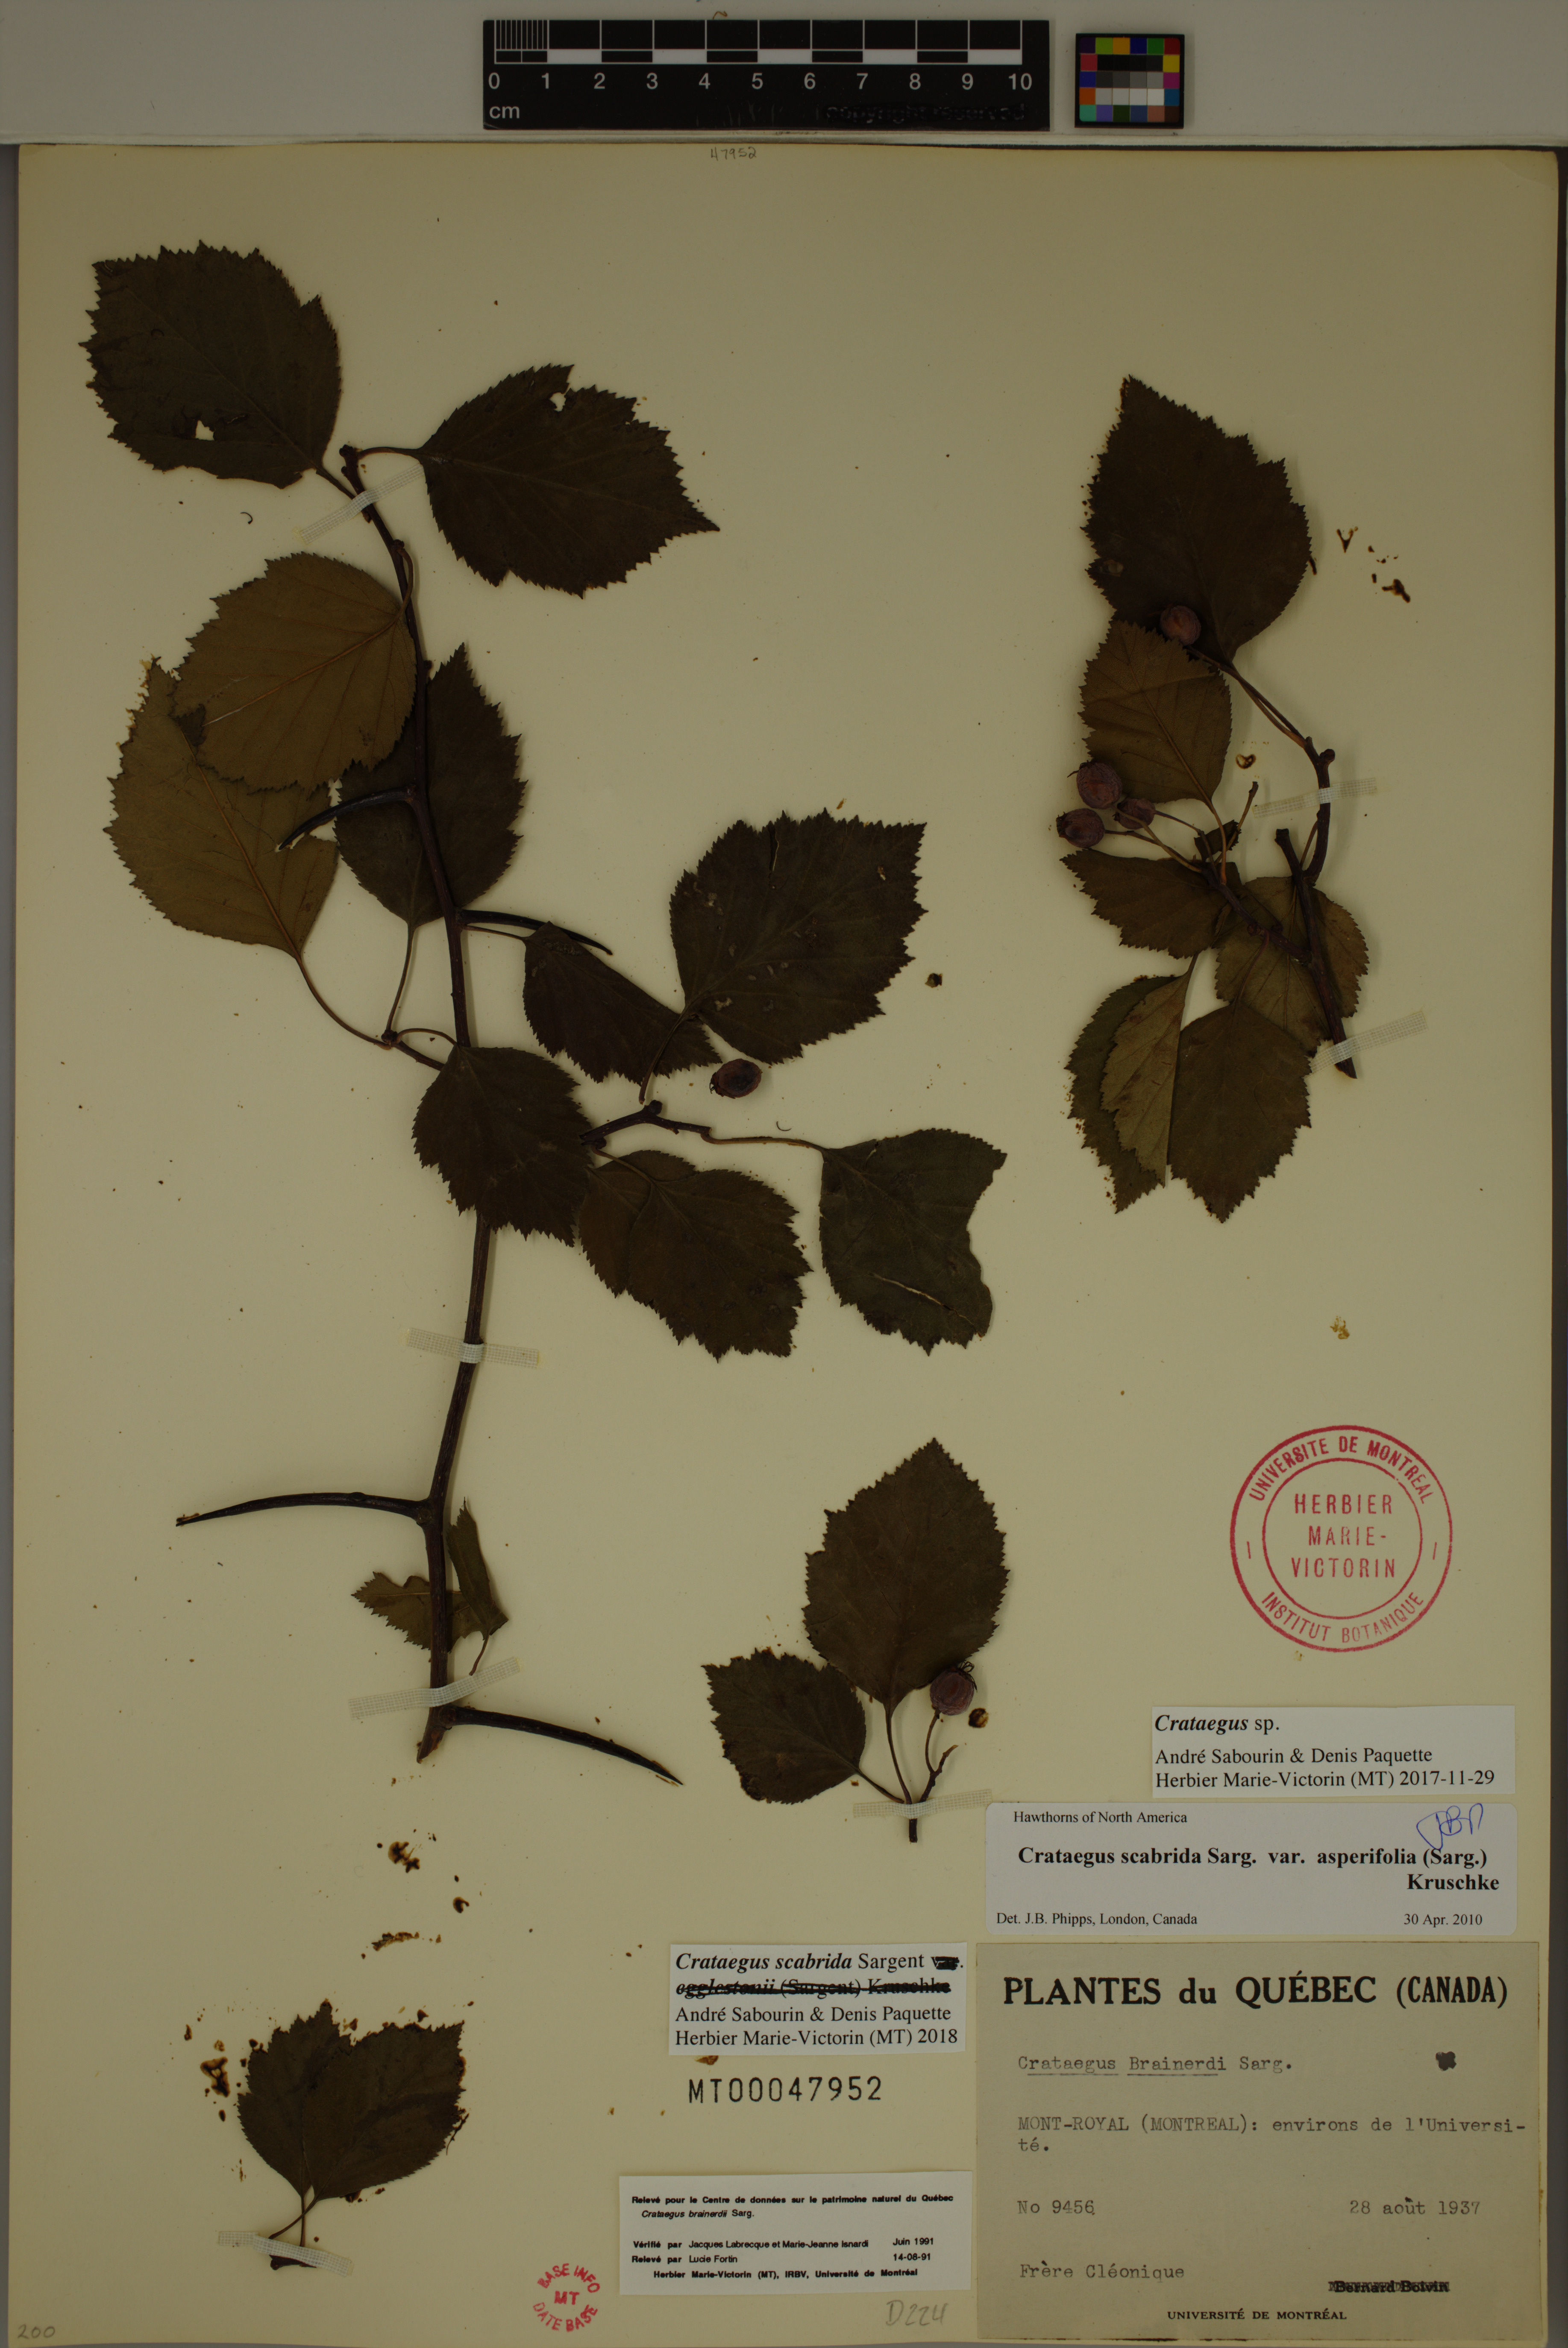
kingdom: Plantae
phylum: Tracheophyta
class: Magnoliopsida
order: Rosales
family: Rosaceae
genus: Crataegus
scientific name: Crataegus scabrida
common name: Rough hawthorn
